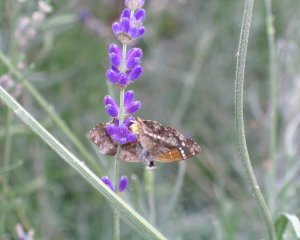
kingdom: Animalia
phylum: Arthropoda
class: Insecta
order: Lepidoptera
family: Nymphalidae
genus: Anthanassa
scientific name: Anthanassa texana
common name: Texan Crescent
